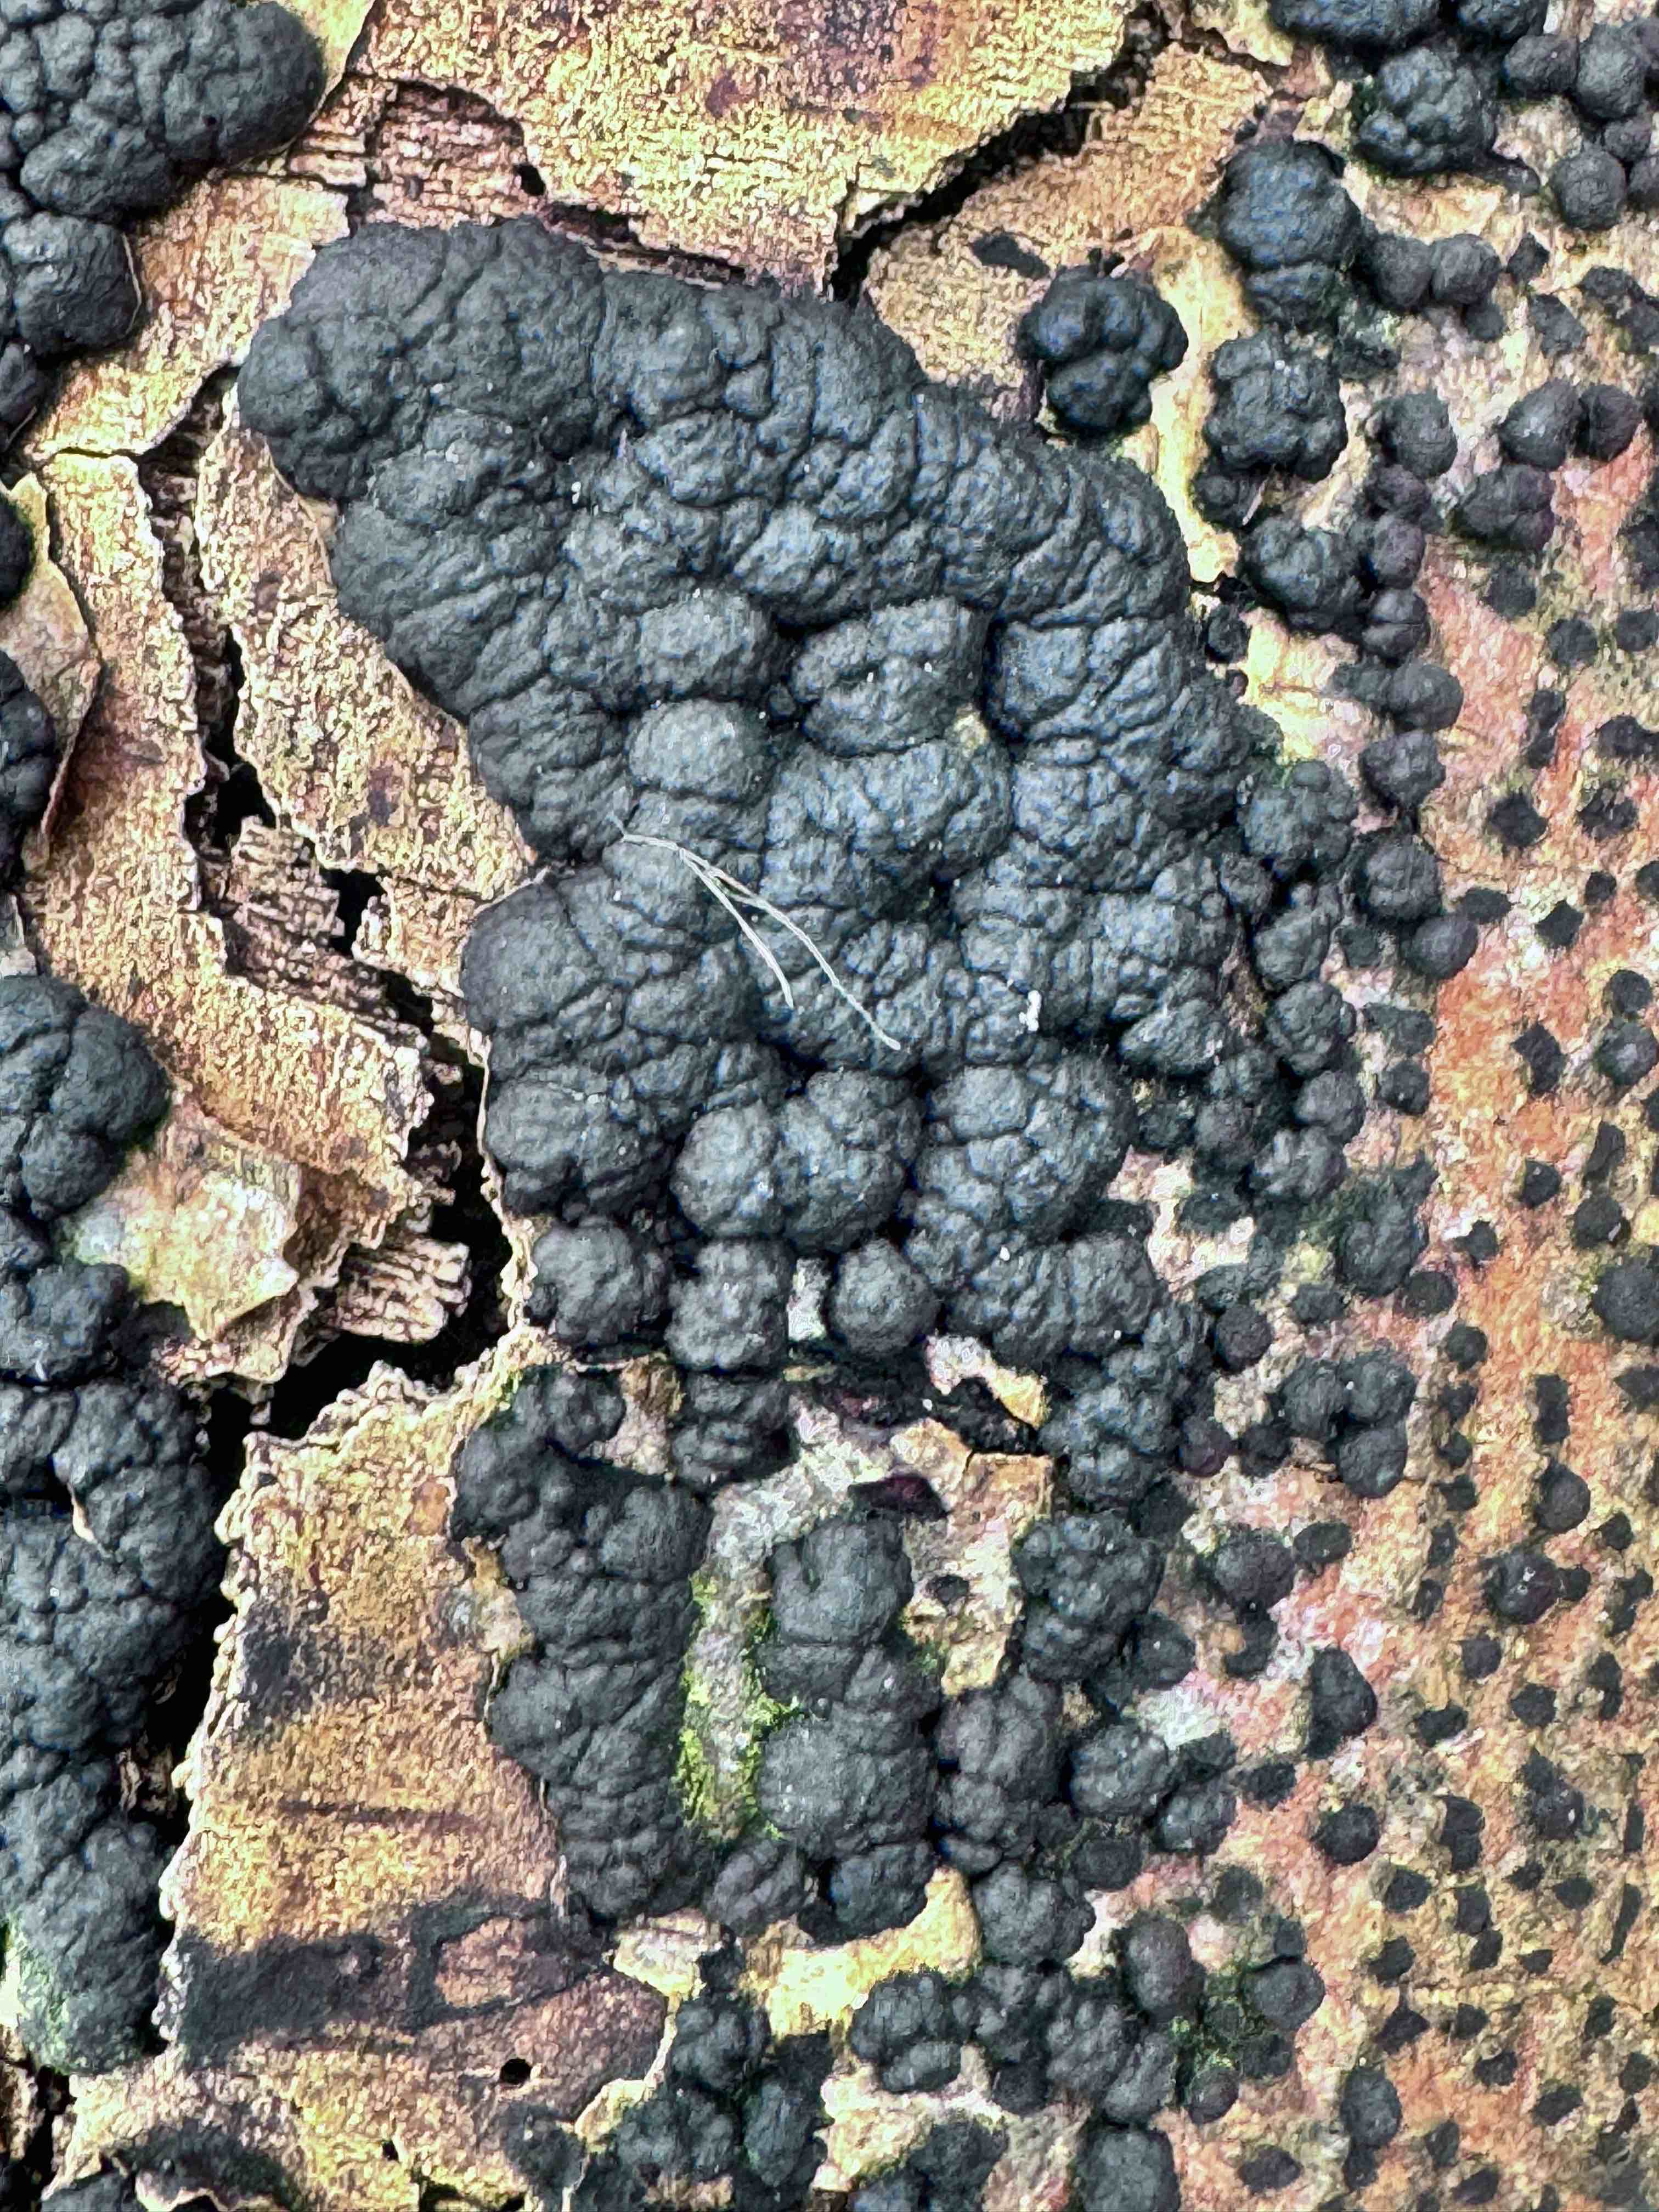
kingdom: Fungi
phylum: Ascomycota
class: Sordariomycetes
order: Xylariales
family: Hypoxylaceae
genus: Jackrogersella
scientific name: Jackrogersella cohaerens
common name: sammenflydende kulbær
